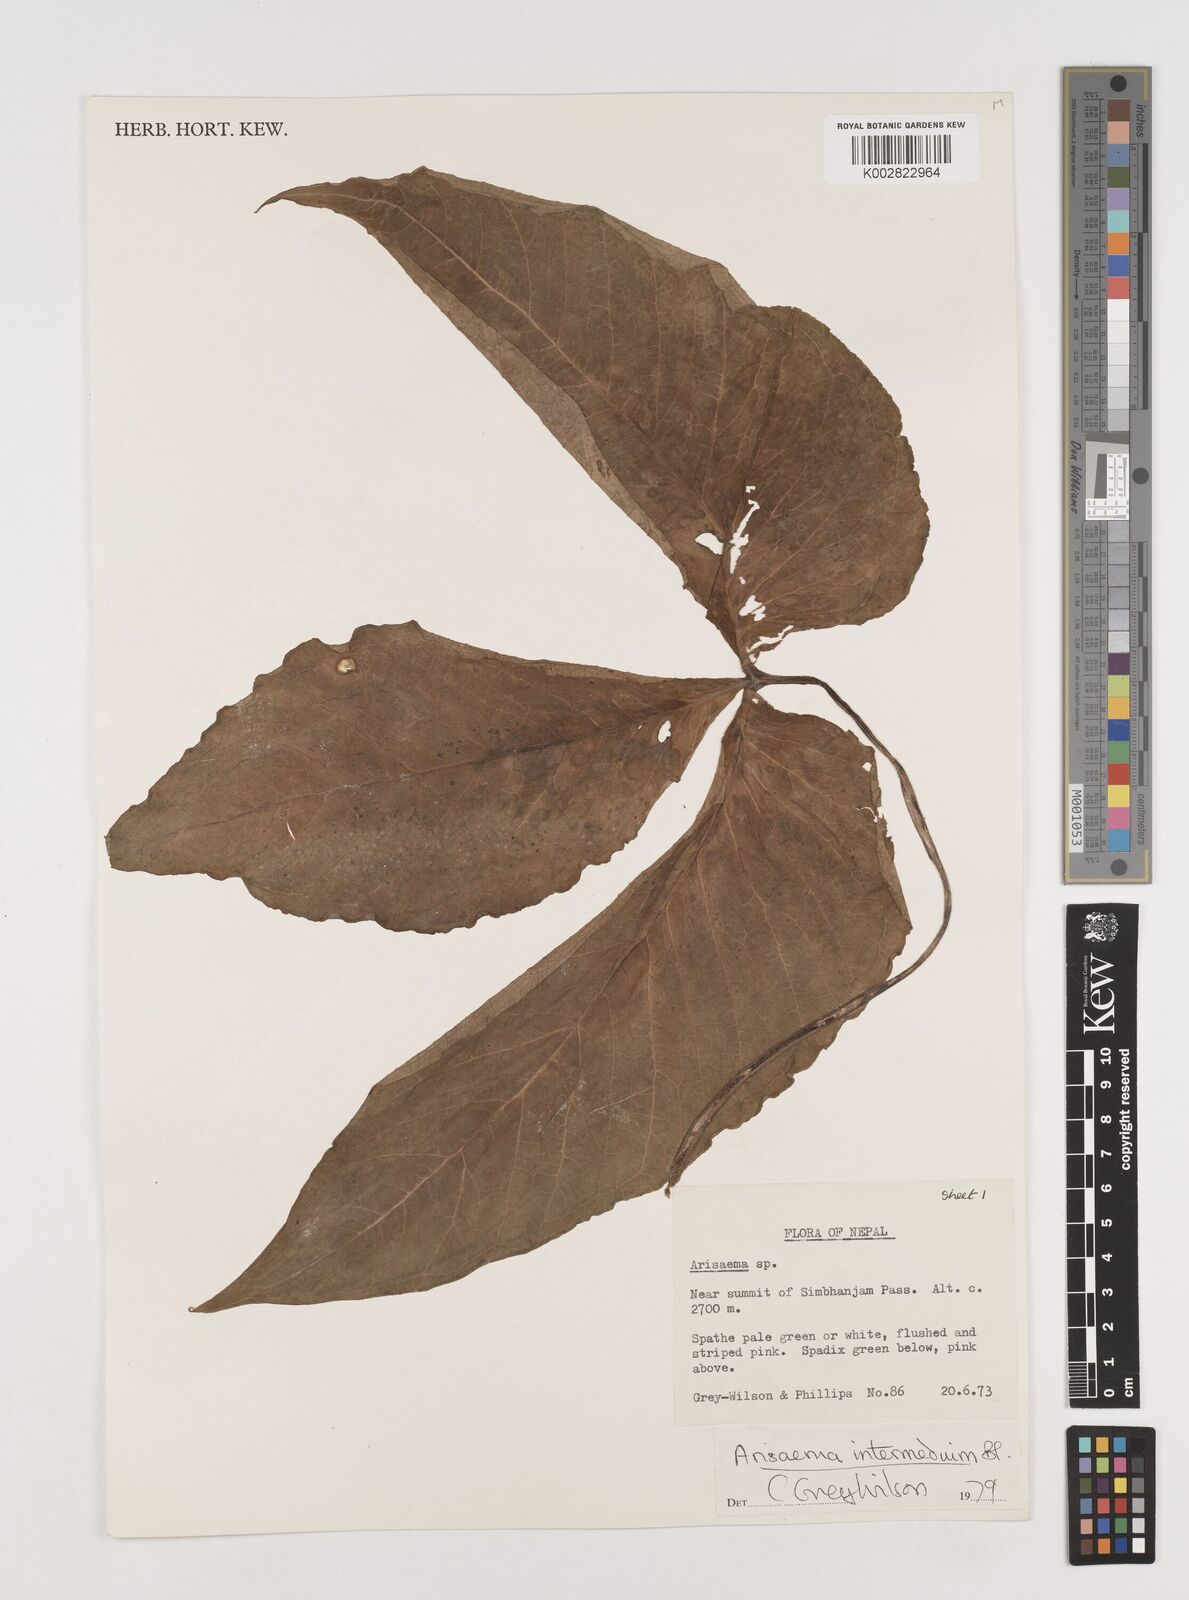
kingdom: Plantae
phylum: Tracheophyta
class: Liliopsida
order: Alismatales
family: Araceae
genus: Arisaema
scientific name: Arisaema intermedium
